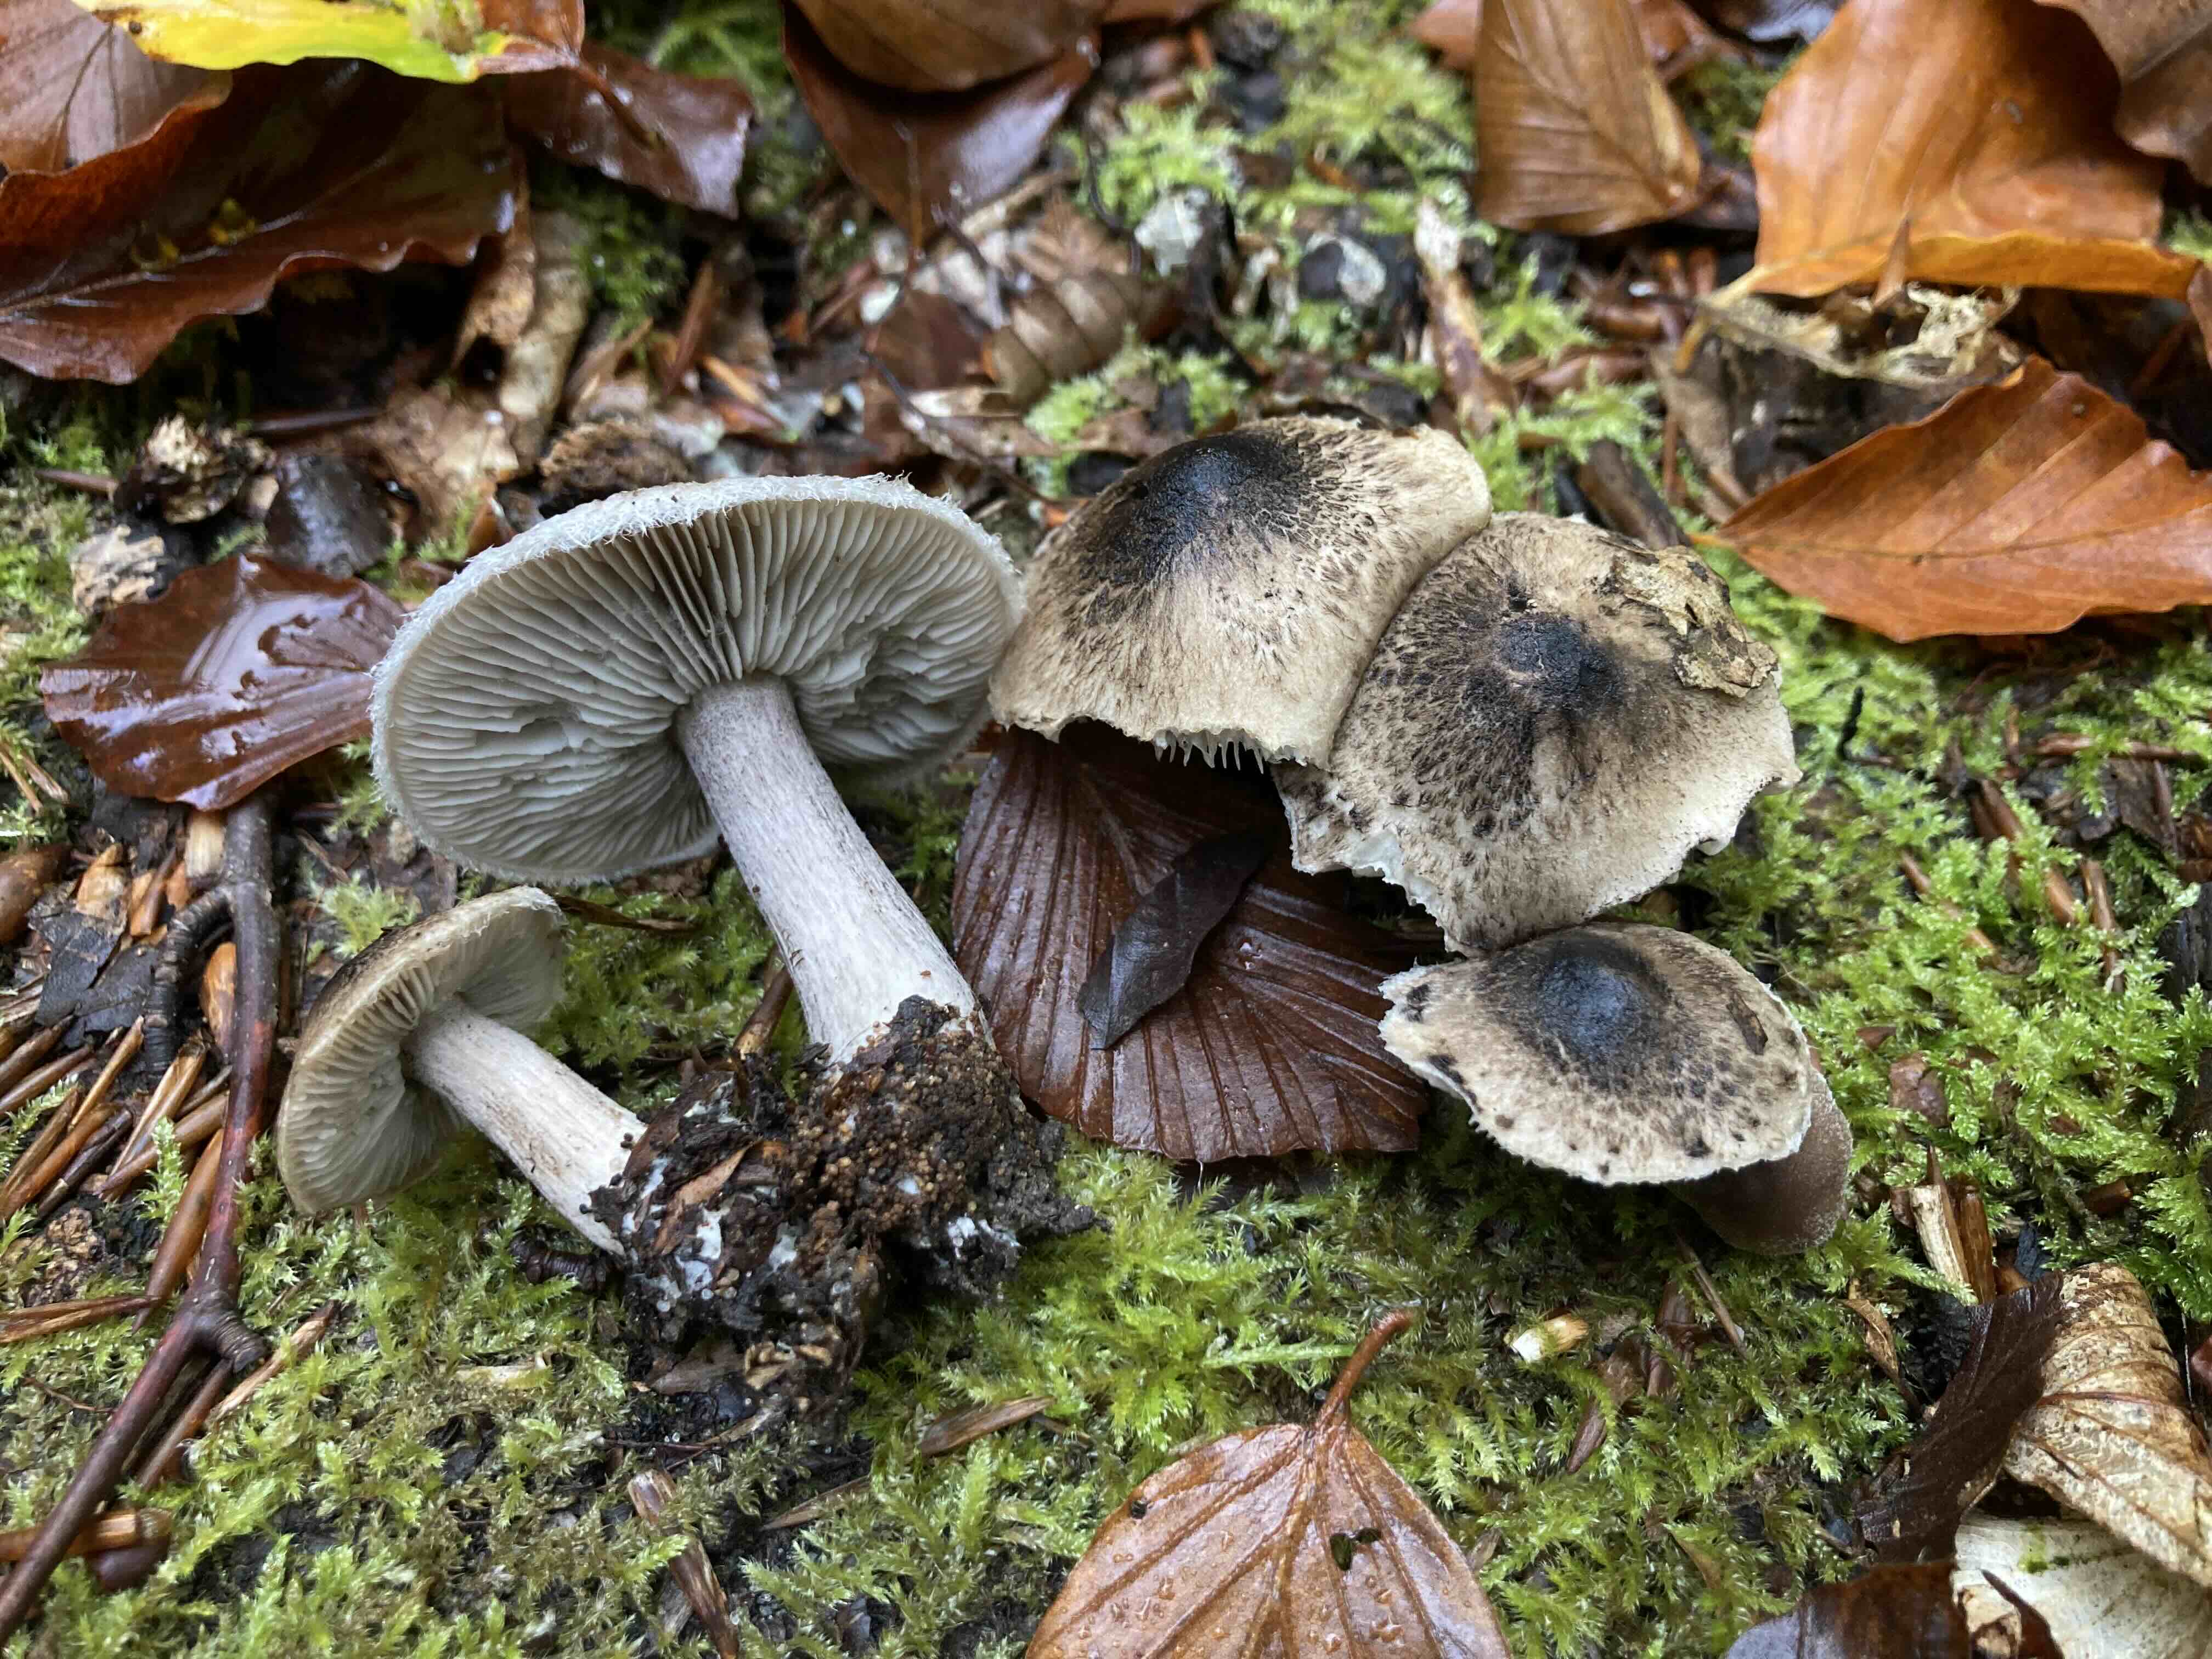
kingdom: Fungi
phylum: Basidiomycota
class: Agaricomycetes
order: Agaricales
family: Tricholomataceae
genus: Tricholoma
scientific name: Tricholoma atrosquamosum
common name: sortskællet ridderhat
